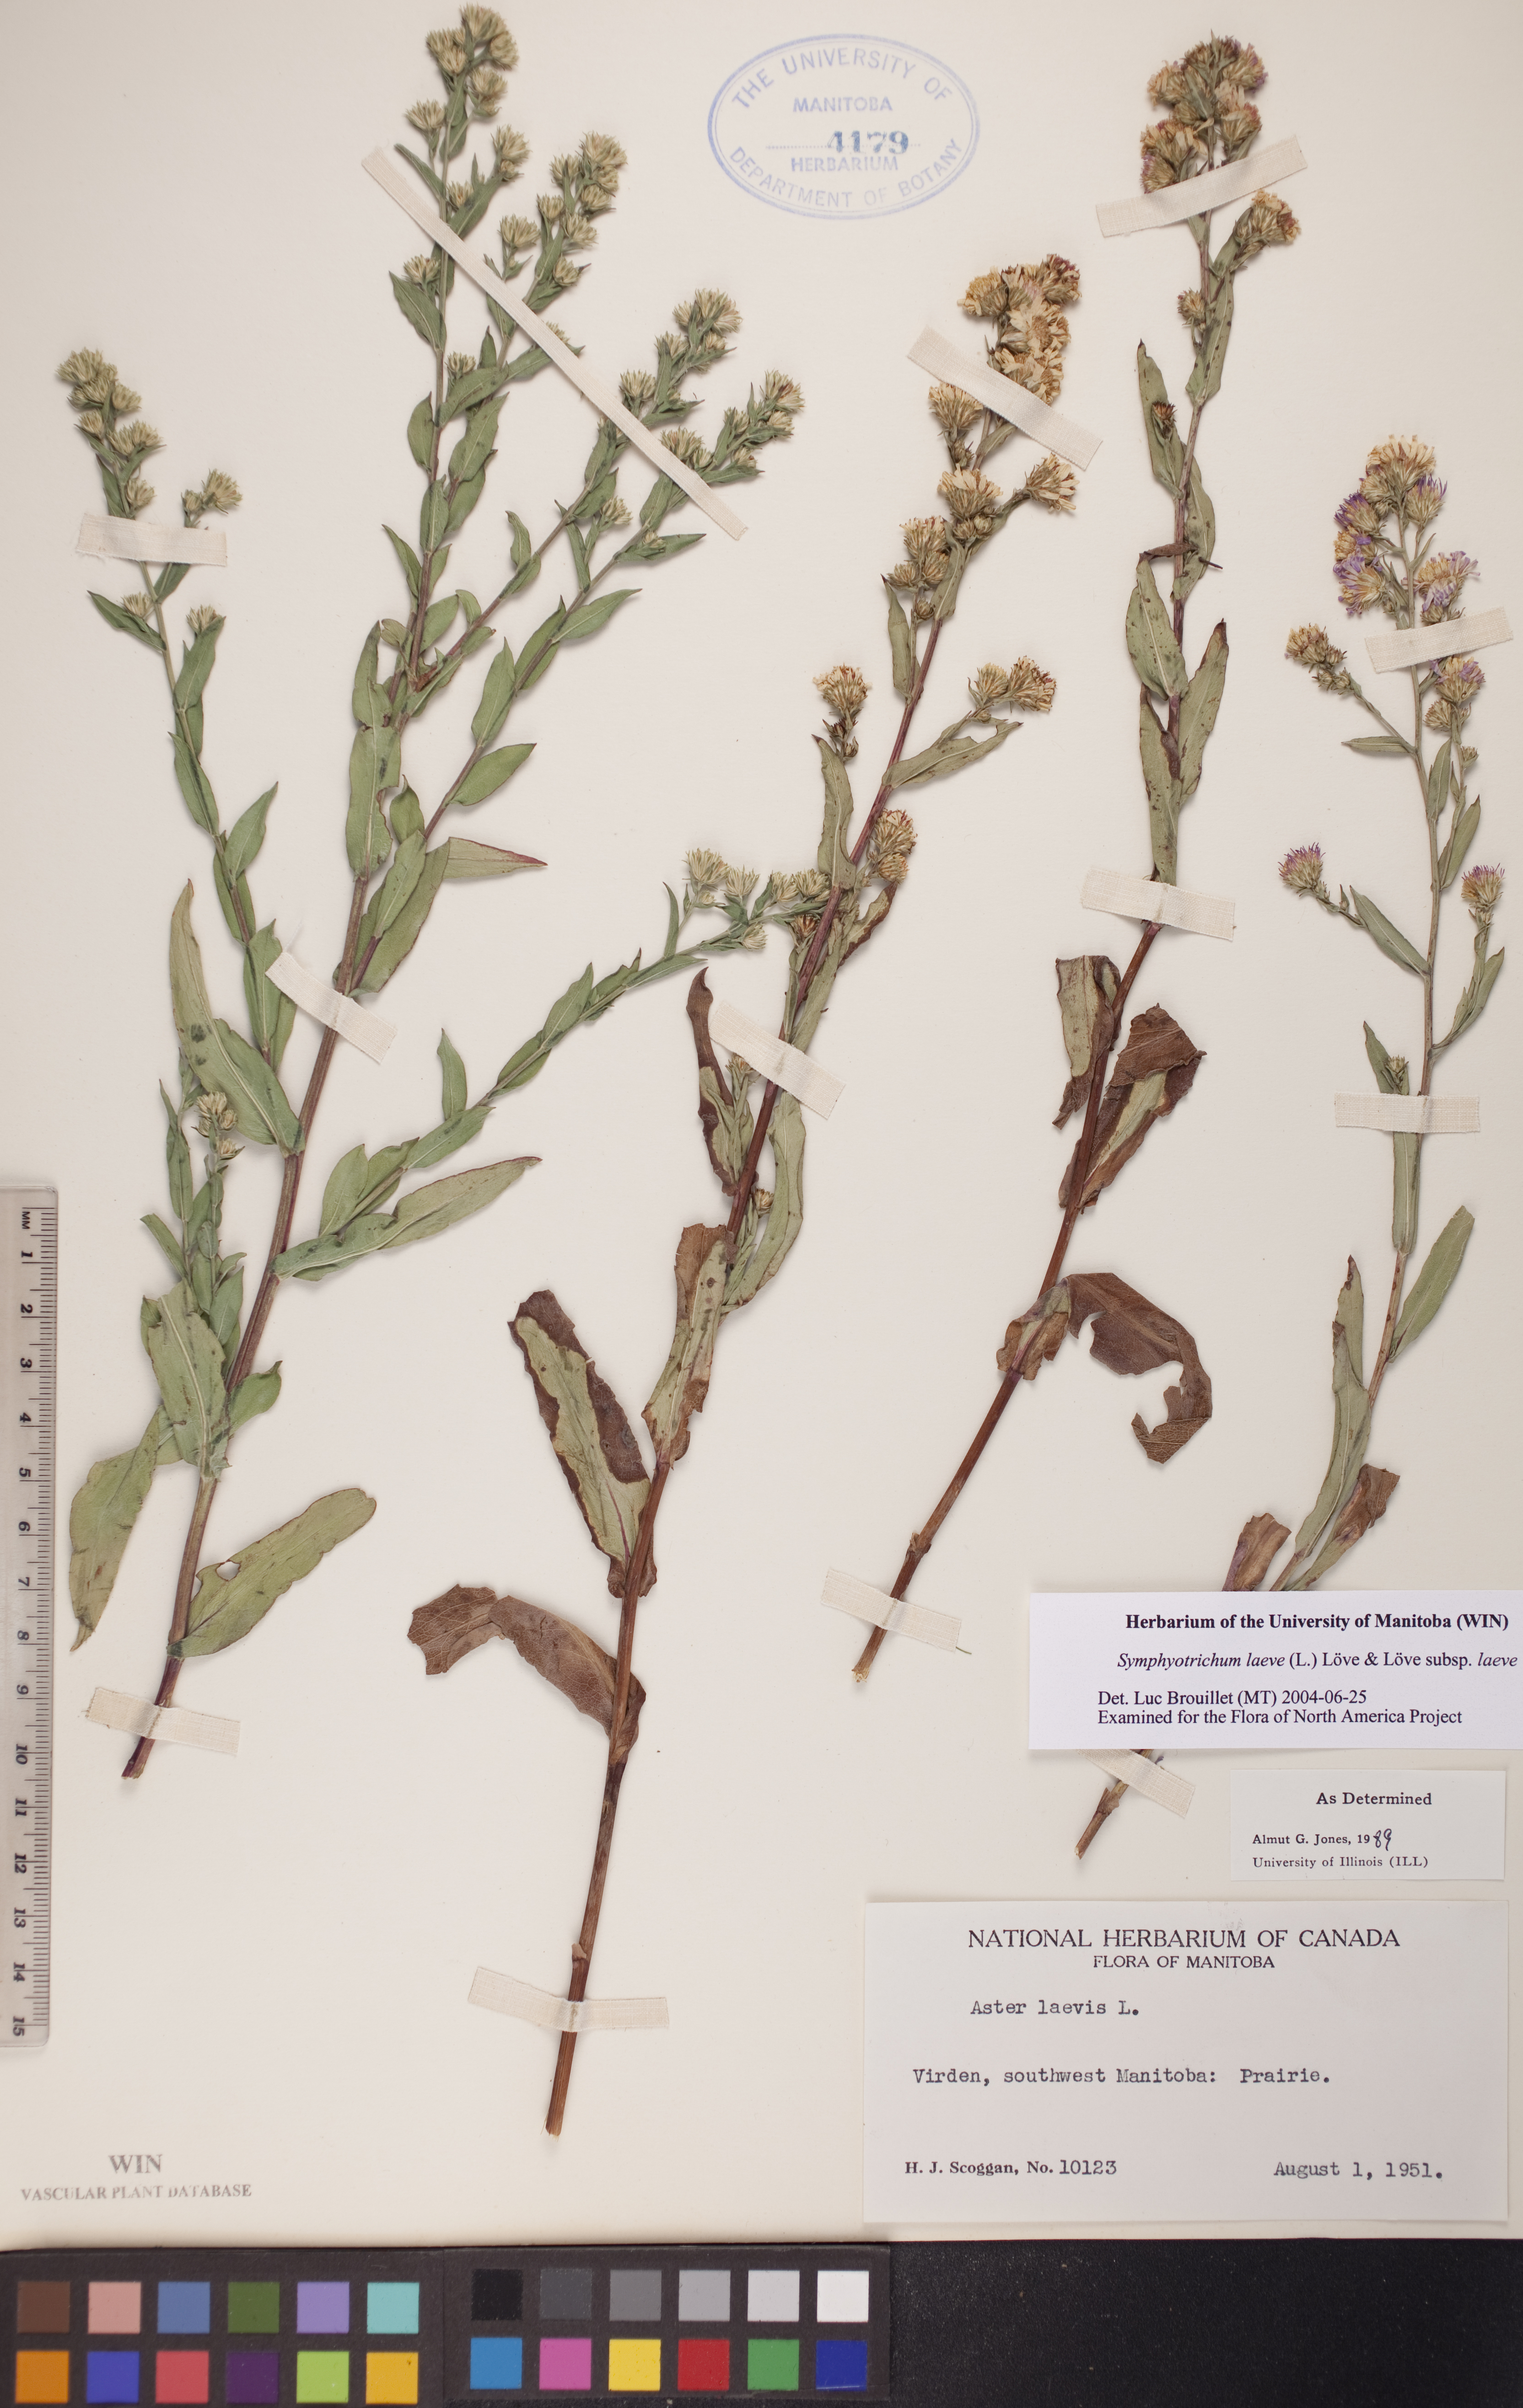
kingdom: Plantae
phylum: Tracheophyta
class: Magnoliopsida
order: Asterales
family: Asteraceae
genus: Symphyotrichum
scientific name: Symphyotrichum laeve
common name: Glaucous aster
